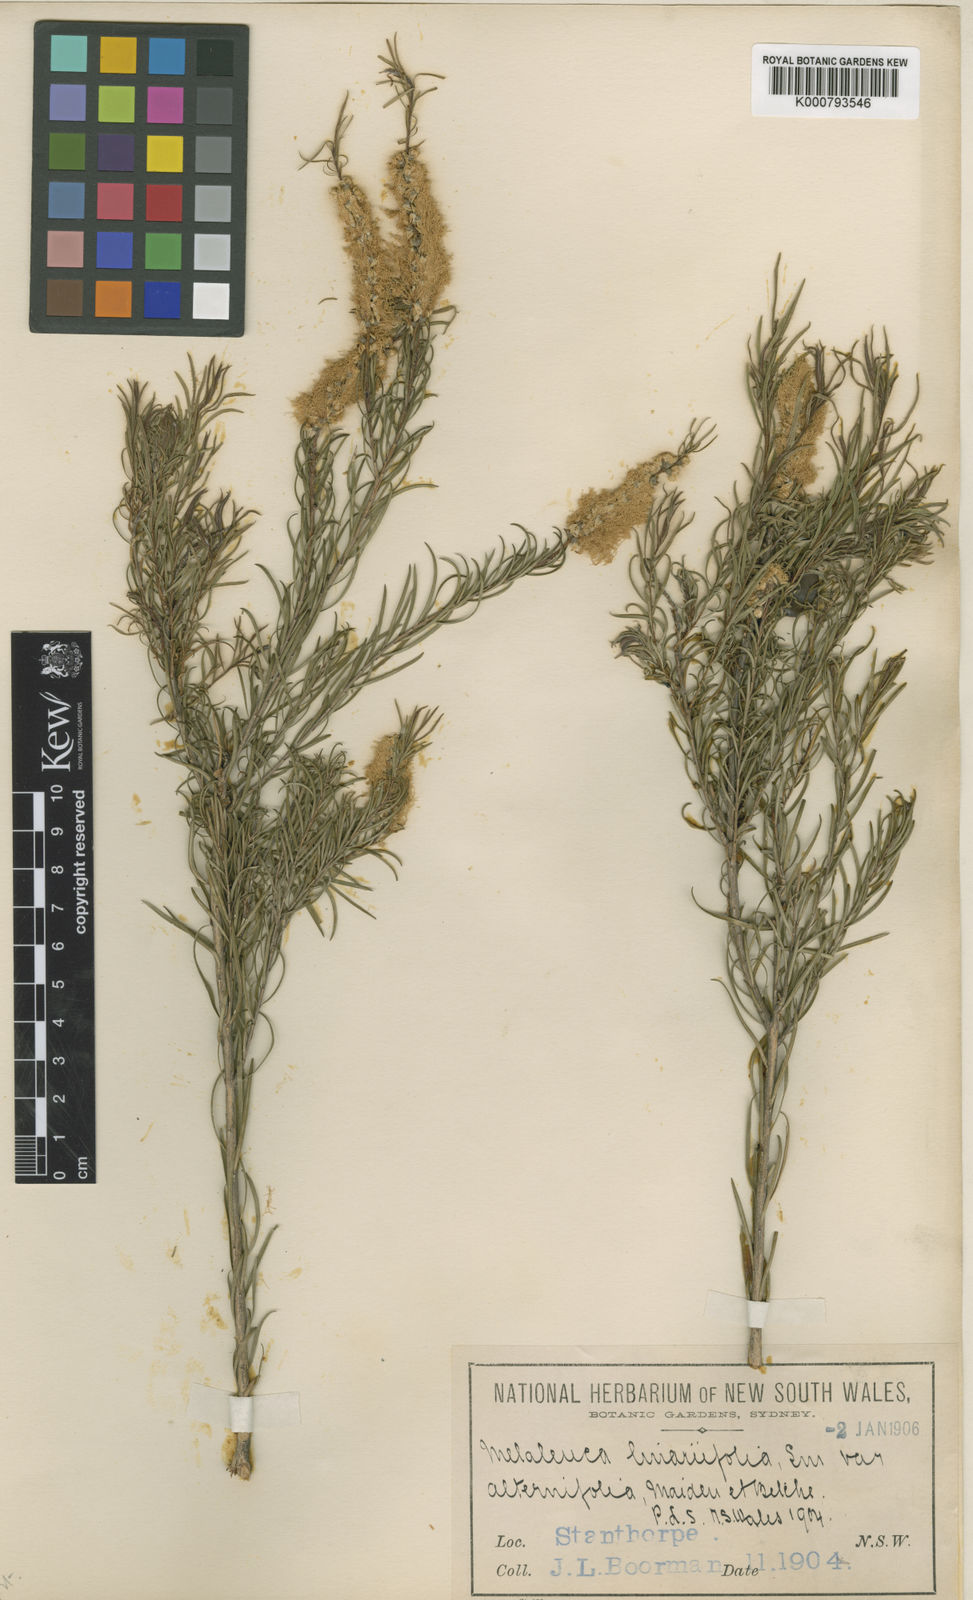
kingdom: Plantae
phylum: Tracheophyta
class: Magnoliopsida
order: Myrtales
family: Myrtaceae
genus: Melaleuca
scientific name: Melaleuca alternifolia
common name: Narrow-leaf paperbark
